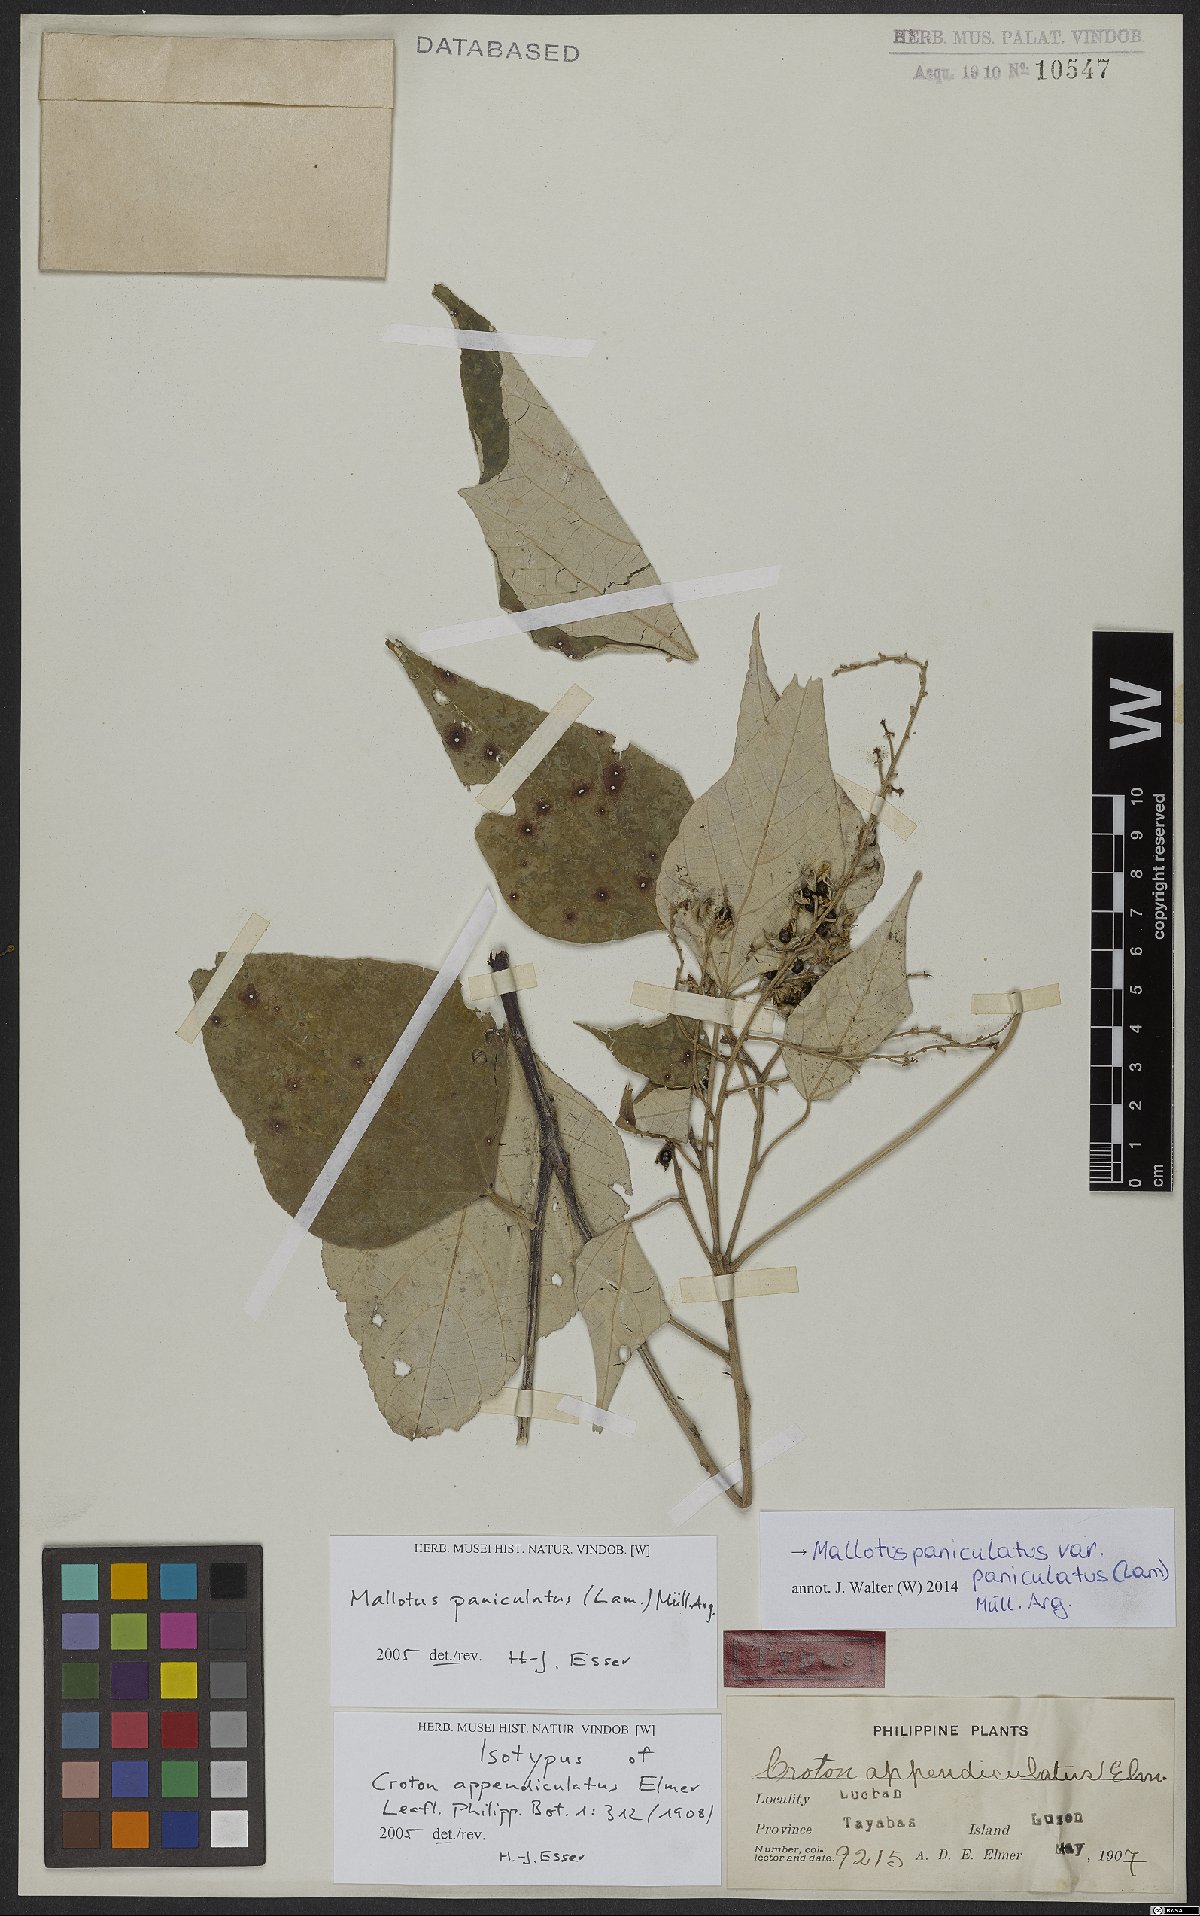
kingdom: Plantae
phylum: Tracheophyta
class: Magnoliopsida
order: Malpighiales
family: Euphorbiaceae
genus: Mallotus
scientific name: Mallotus paniculatus
